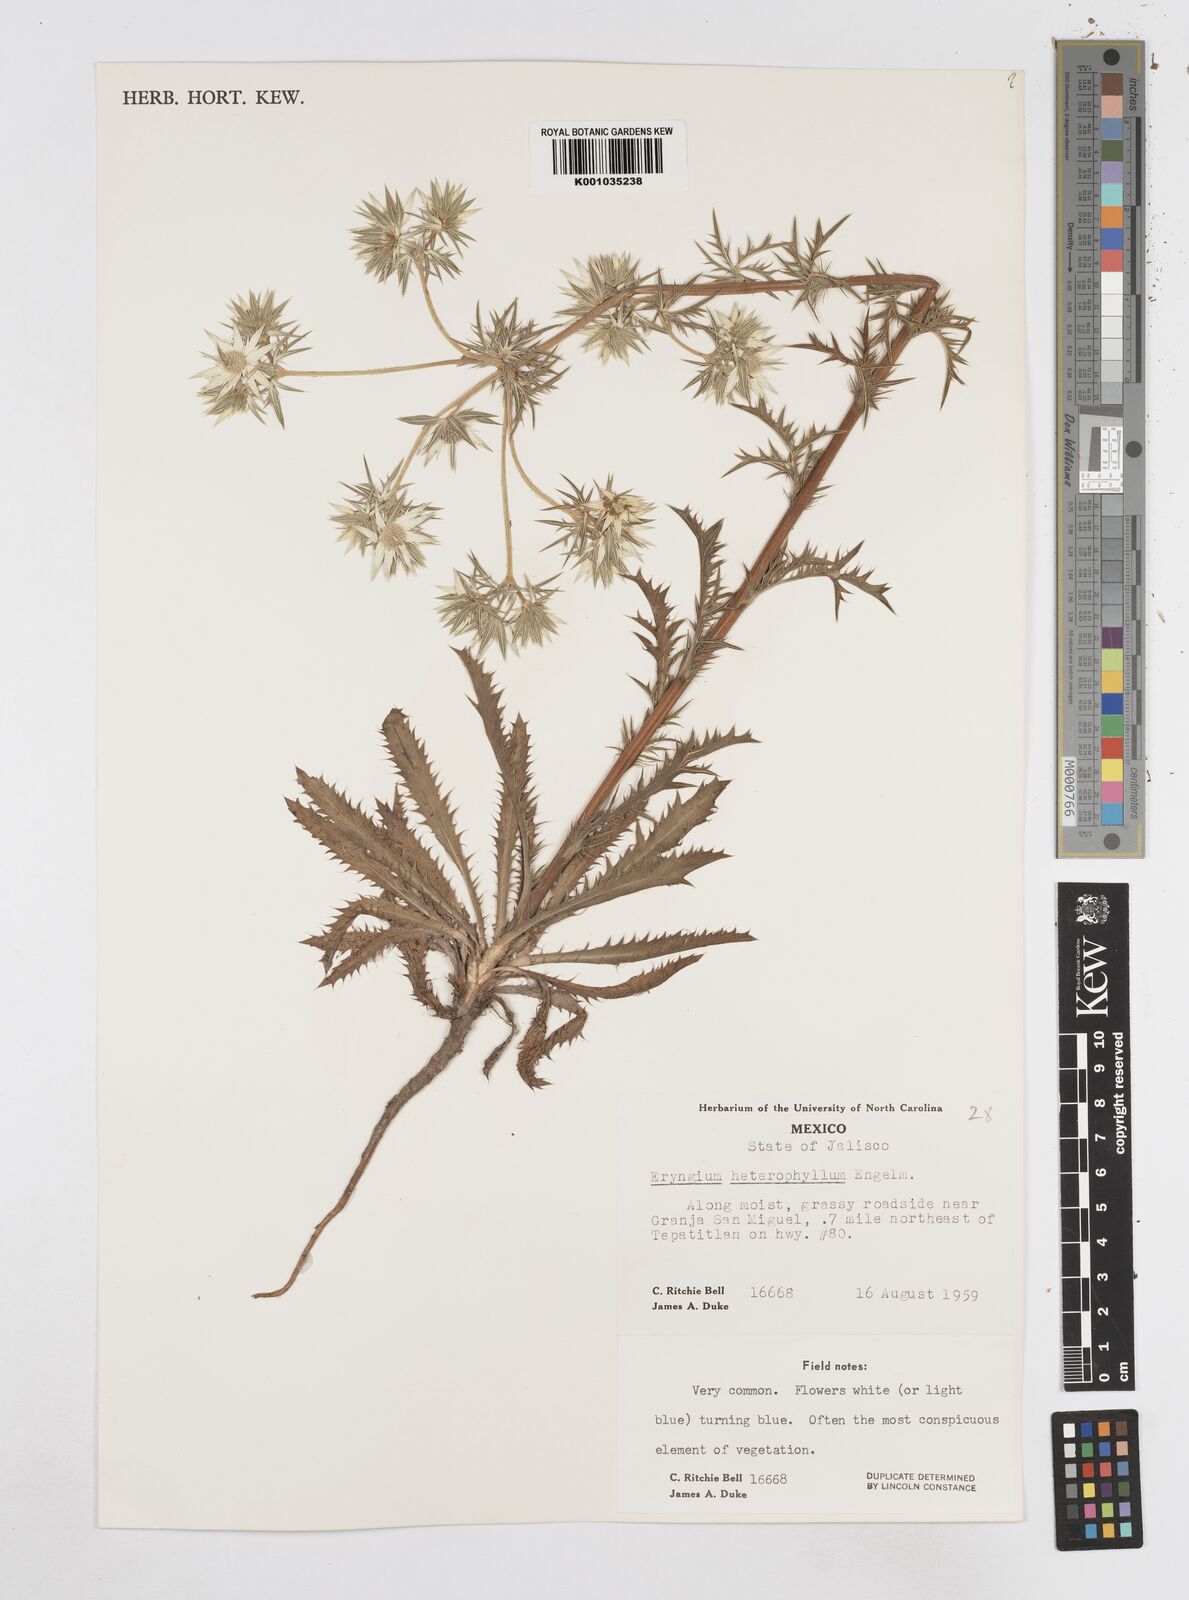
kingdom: Plantae
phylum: Tracheophyta
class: Magnoliopsida
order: Apiales
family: Apiaceae
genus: Eryngium
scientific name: Eryngium heterophyllum
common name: Mexican thistle
